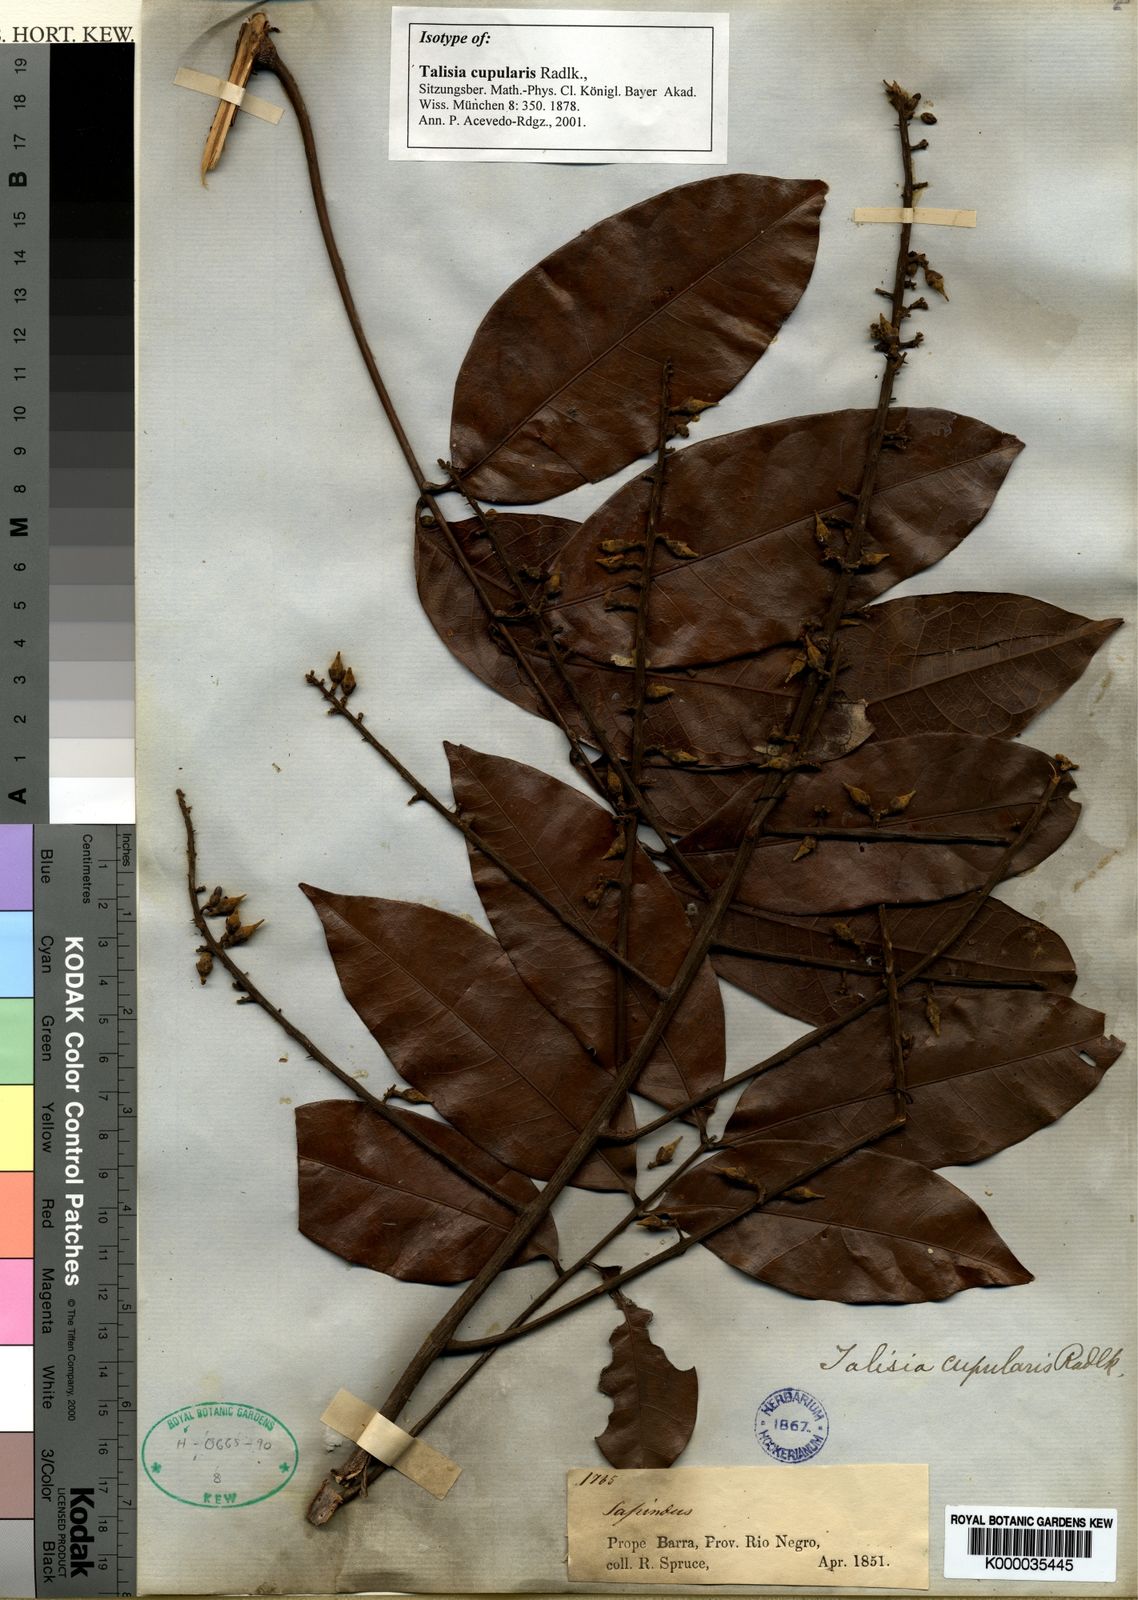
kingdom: Plantae
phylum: Tracheophyta
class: Magnoliopsida
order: Sapindales
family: Sapindaceae
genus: Talisia
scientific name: Talisia cupularis
